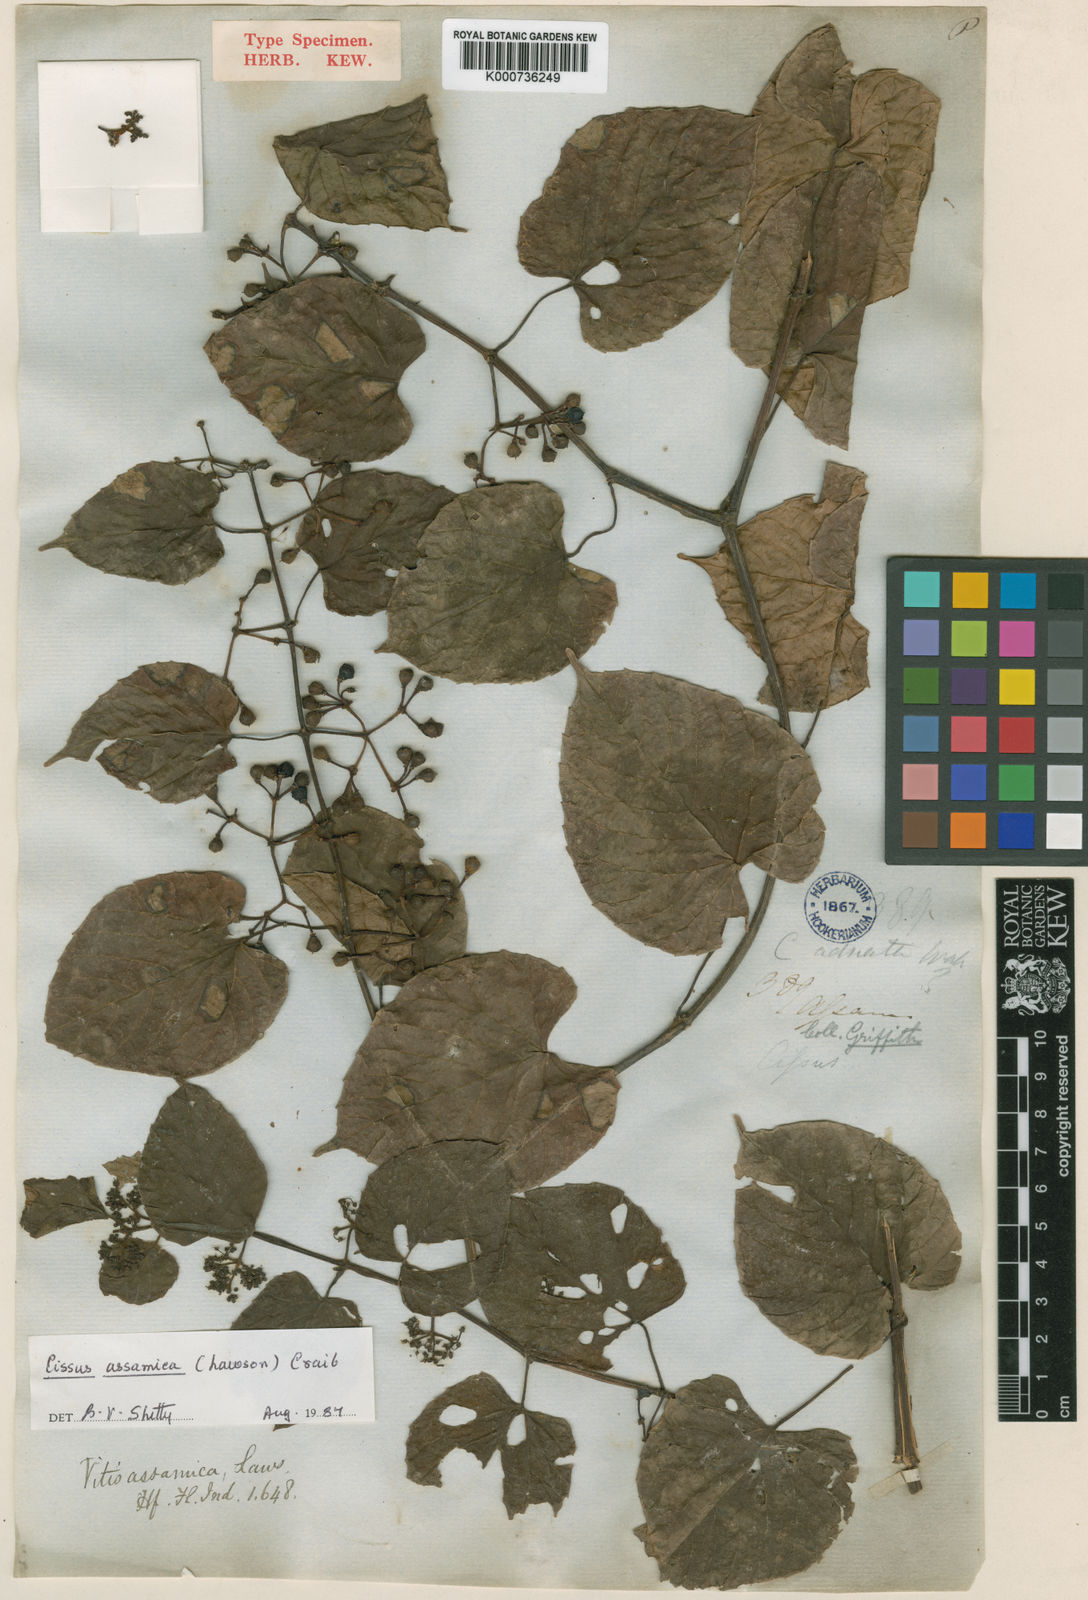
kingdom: Plantae
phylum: Tracheophyta
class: Magnoliopsida
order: Vitales
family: Vitaceae
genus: Cissus
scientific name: Cissus assamica
